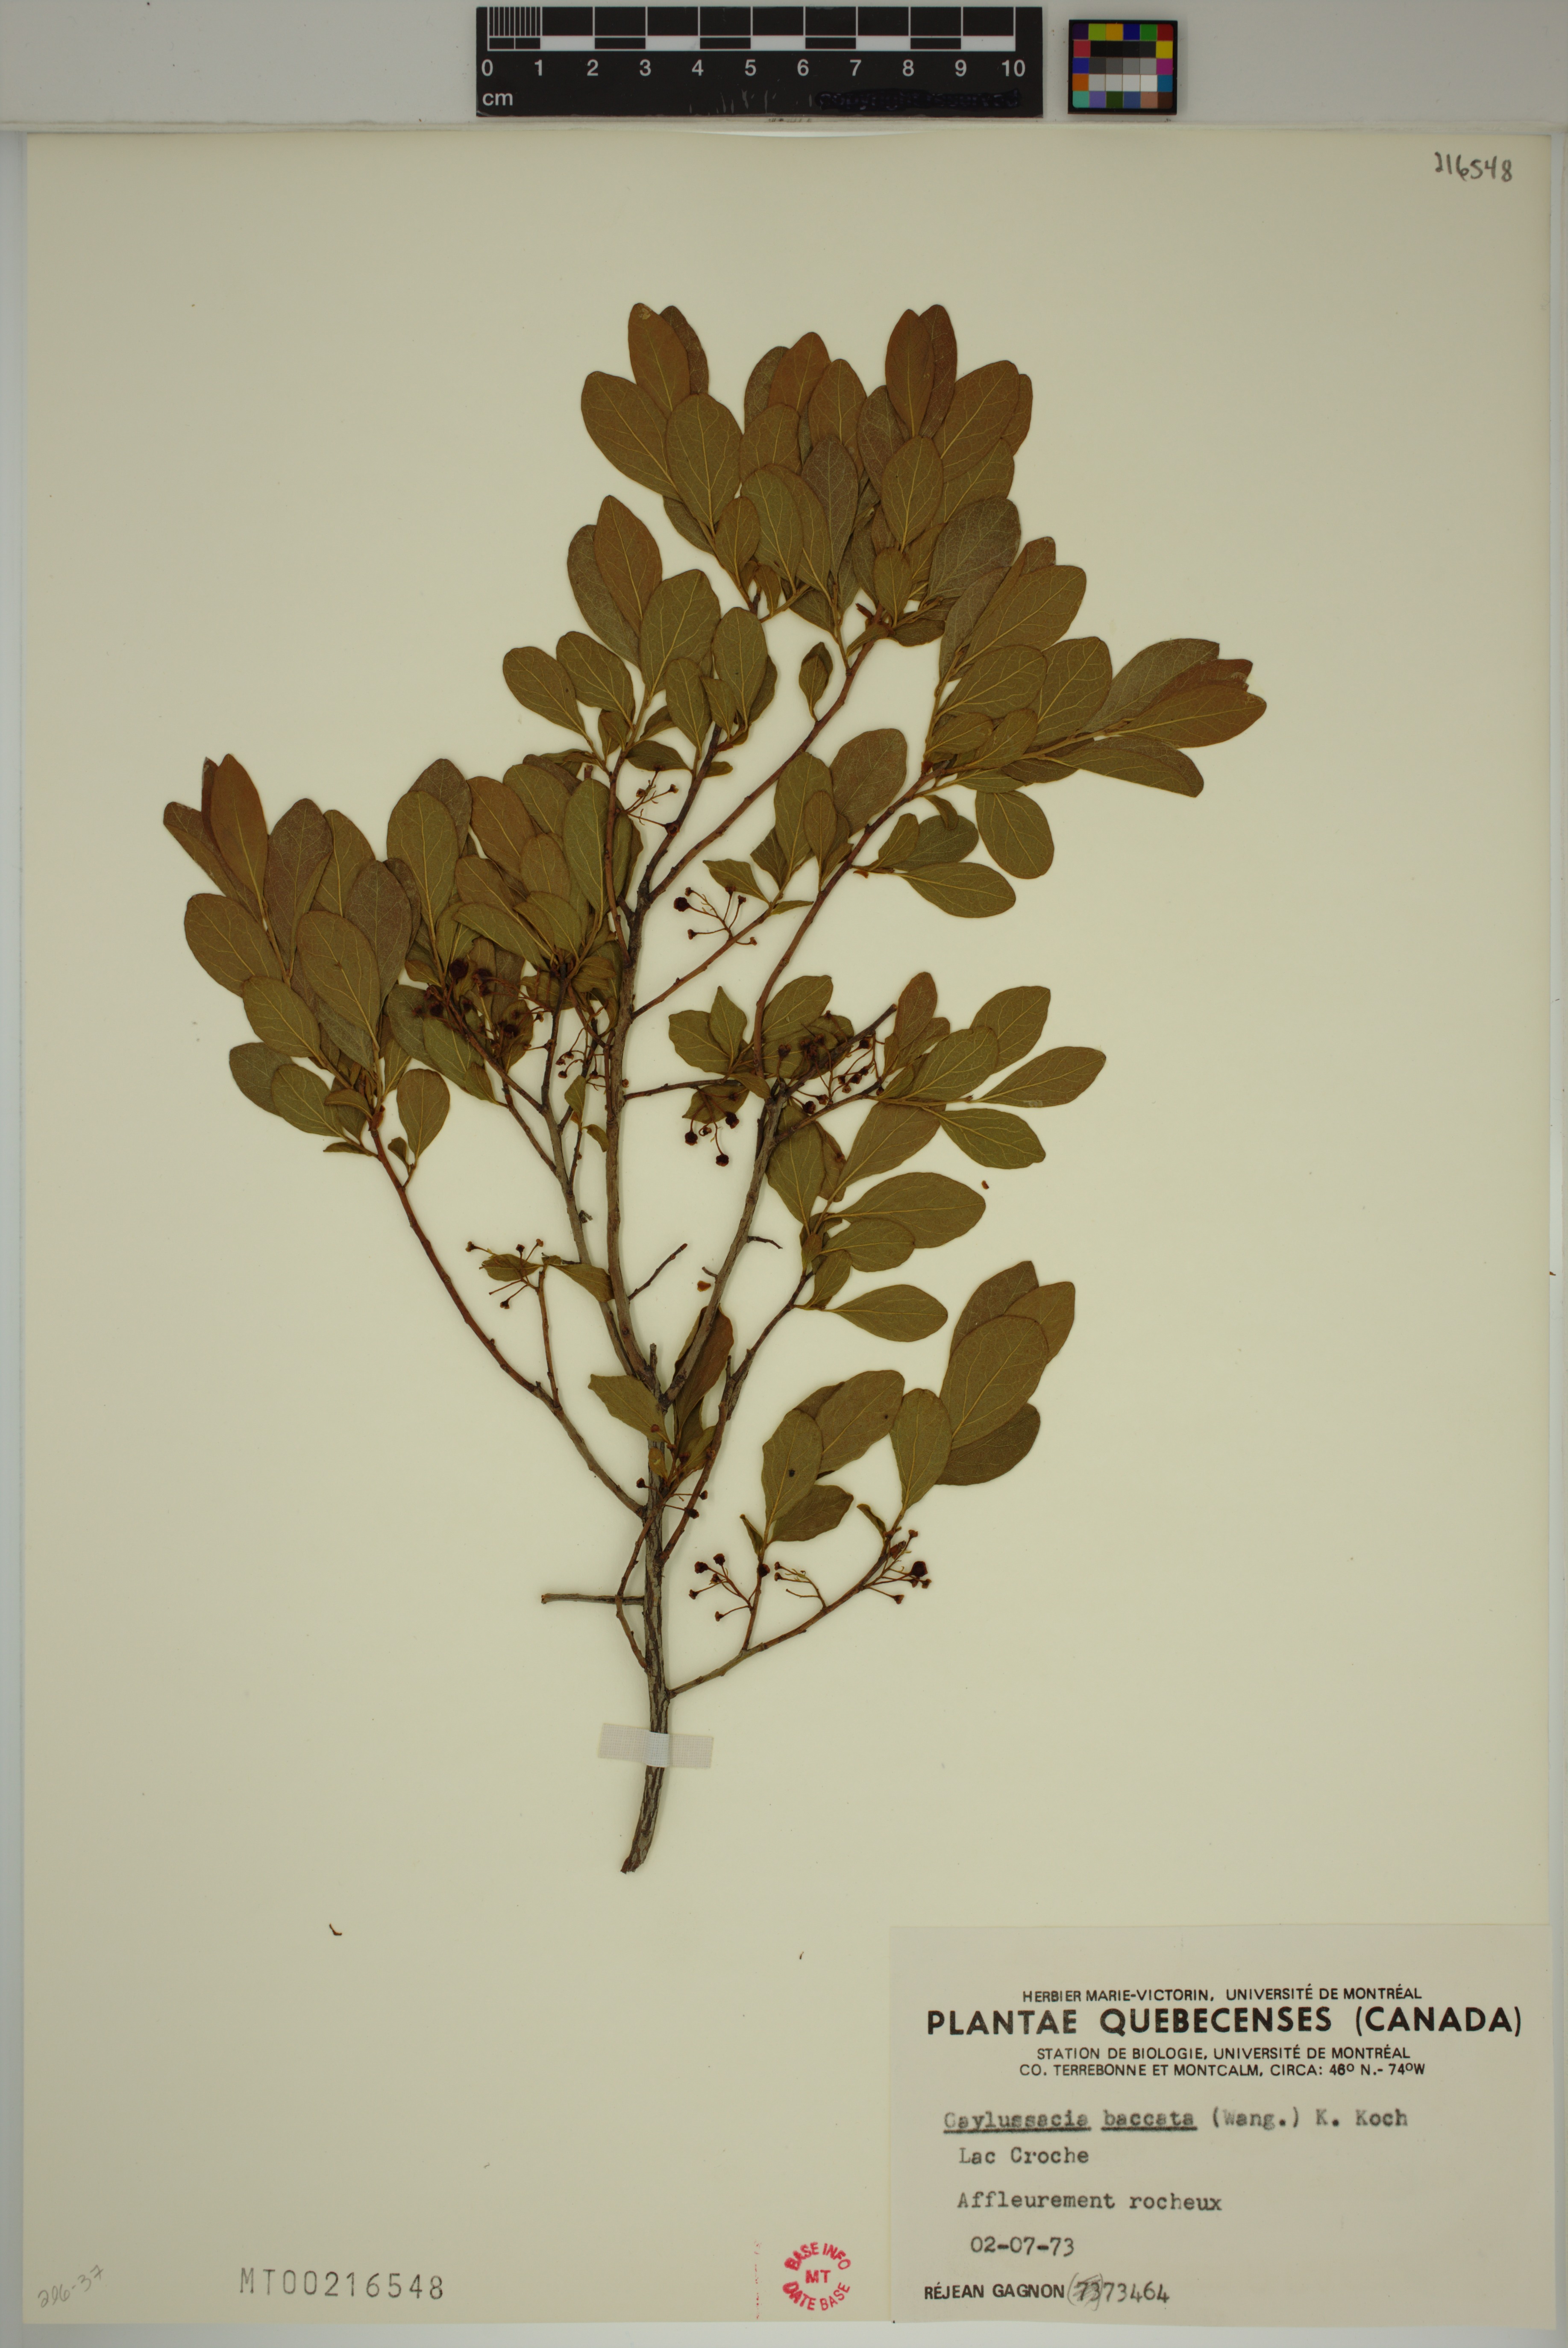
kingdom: Plantae
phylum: Tracheophyta
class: Magnoliopsida
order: Ericales
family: Ericaceae
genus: Gaylussacia
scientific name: Gaylussacia baccata
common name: Black huckleberry
